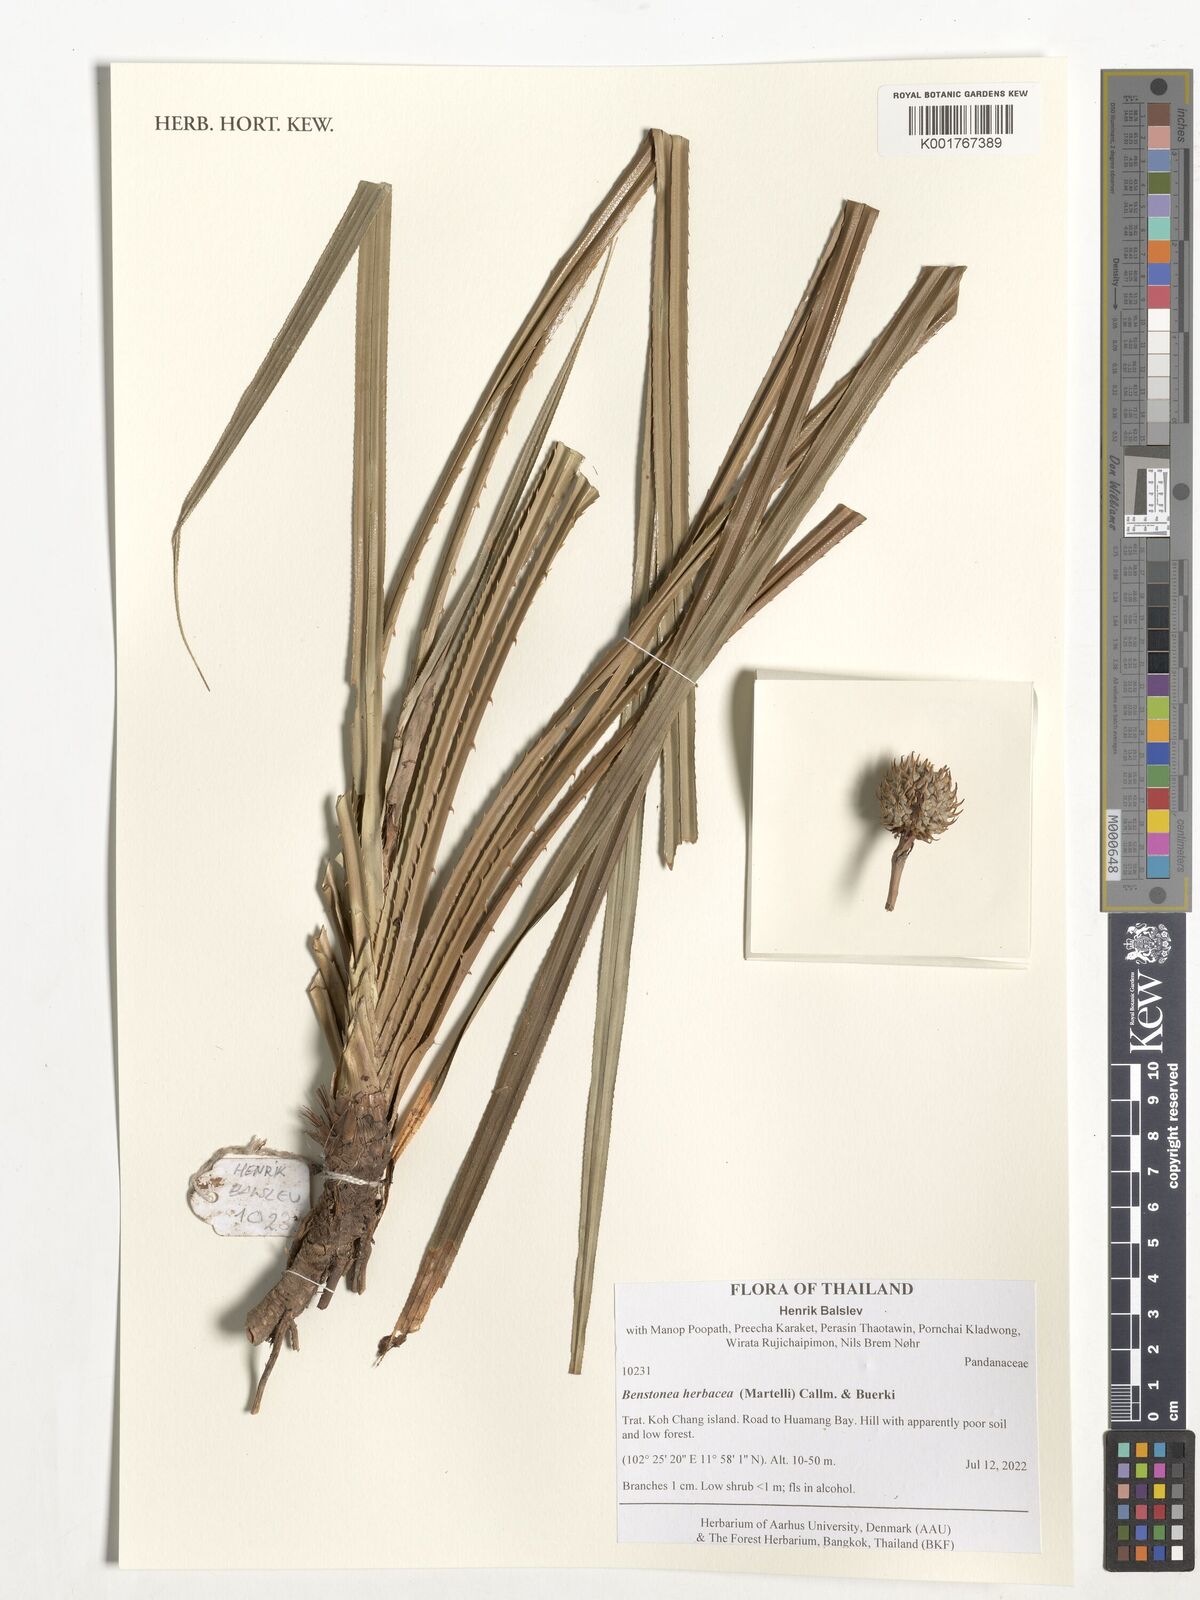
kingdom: Plantae
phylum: Tracheophyta
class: Liliopsida
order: Pandanales
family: Pandanaceae
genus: Benstonea
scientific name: Benstonea herbacea
